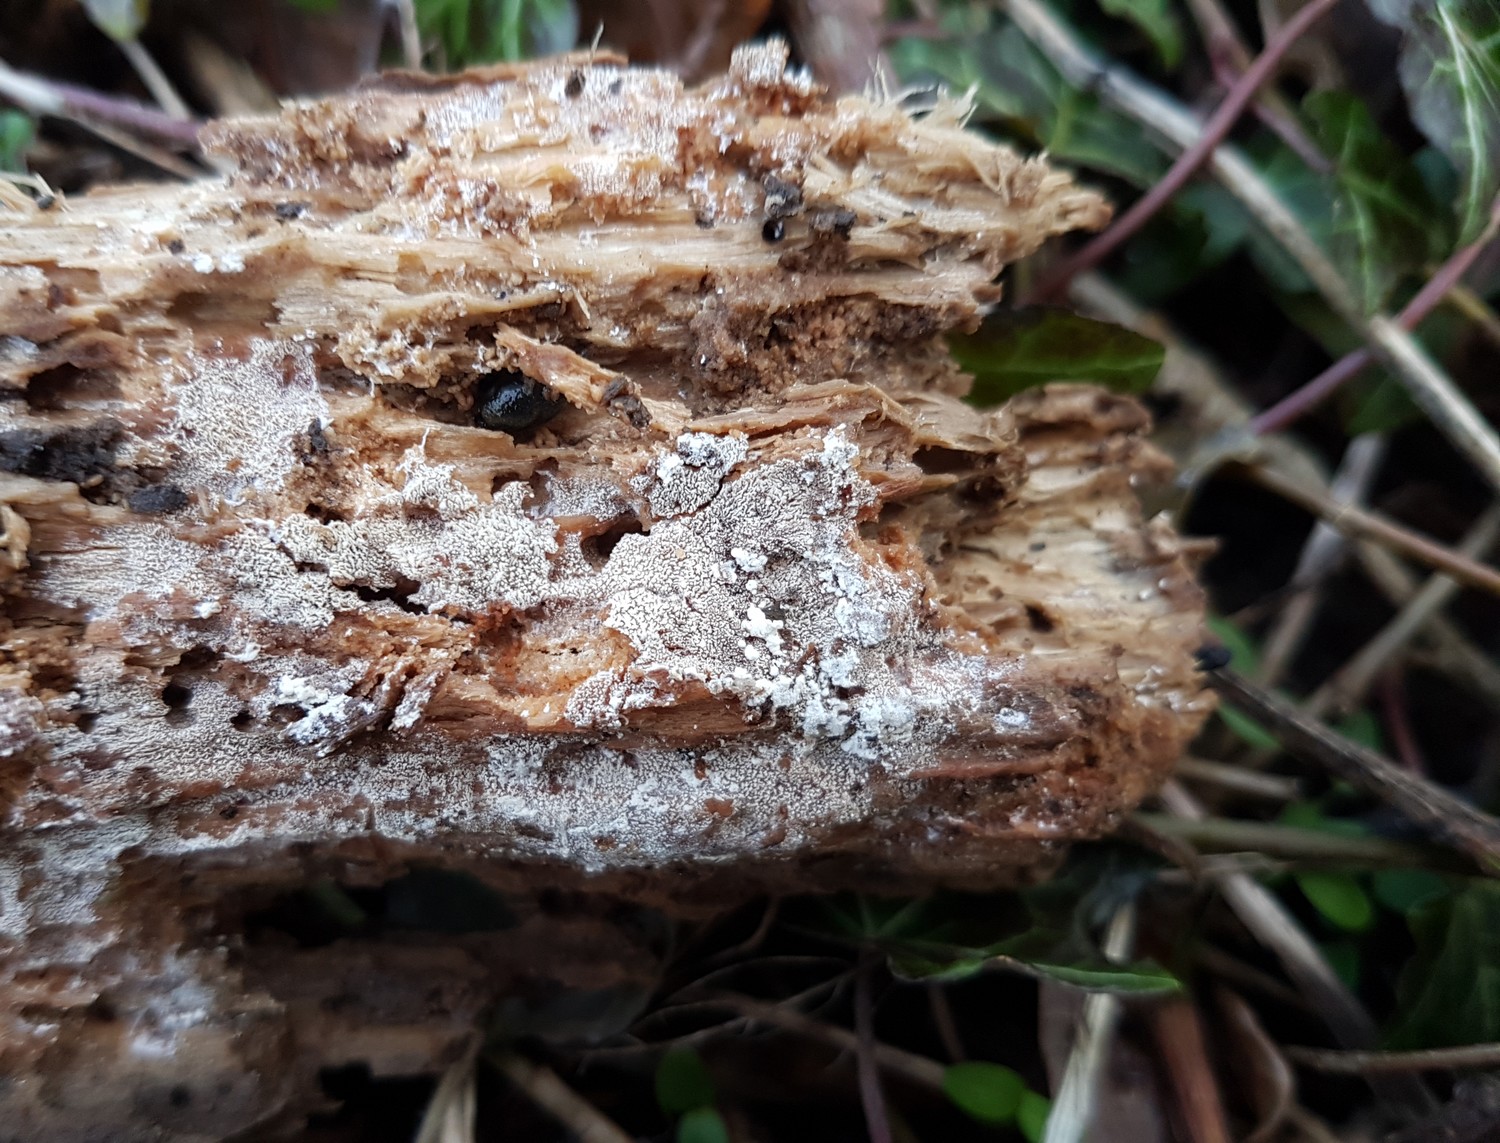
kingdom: Fungi
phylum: Basidiomycota
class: Agaricomycetes
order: Trechisporales
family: Sistotremataceae
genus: Trechispora
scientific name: Trechispora stevensonii
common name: støvende vathinde
